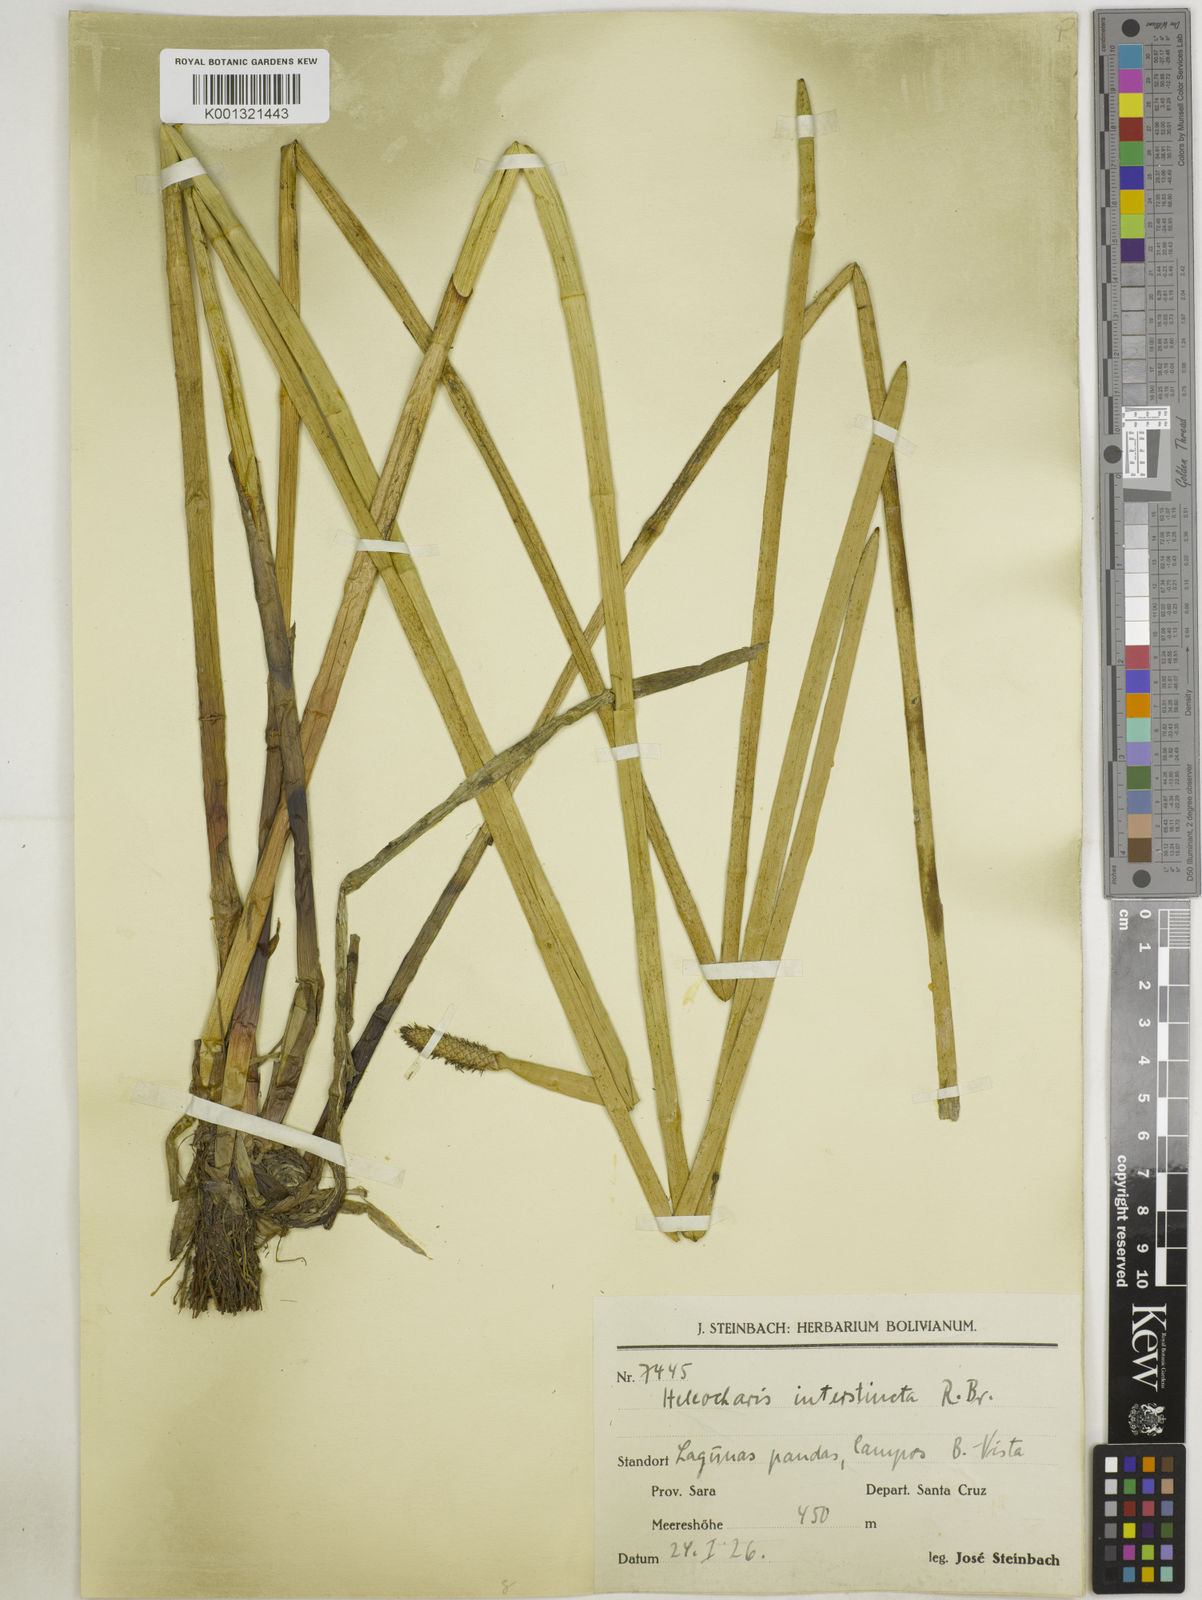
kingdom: Plantae
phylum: Tracheophyta
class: Liliopsida
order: Poales
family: Cyperaceae
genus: Eleocharis
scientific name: Eleocharis interstincta
